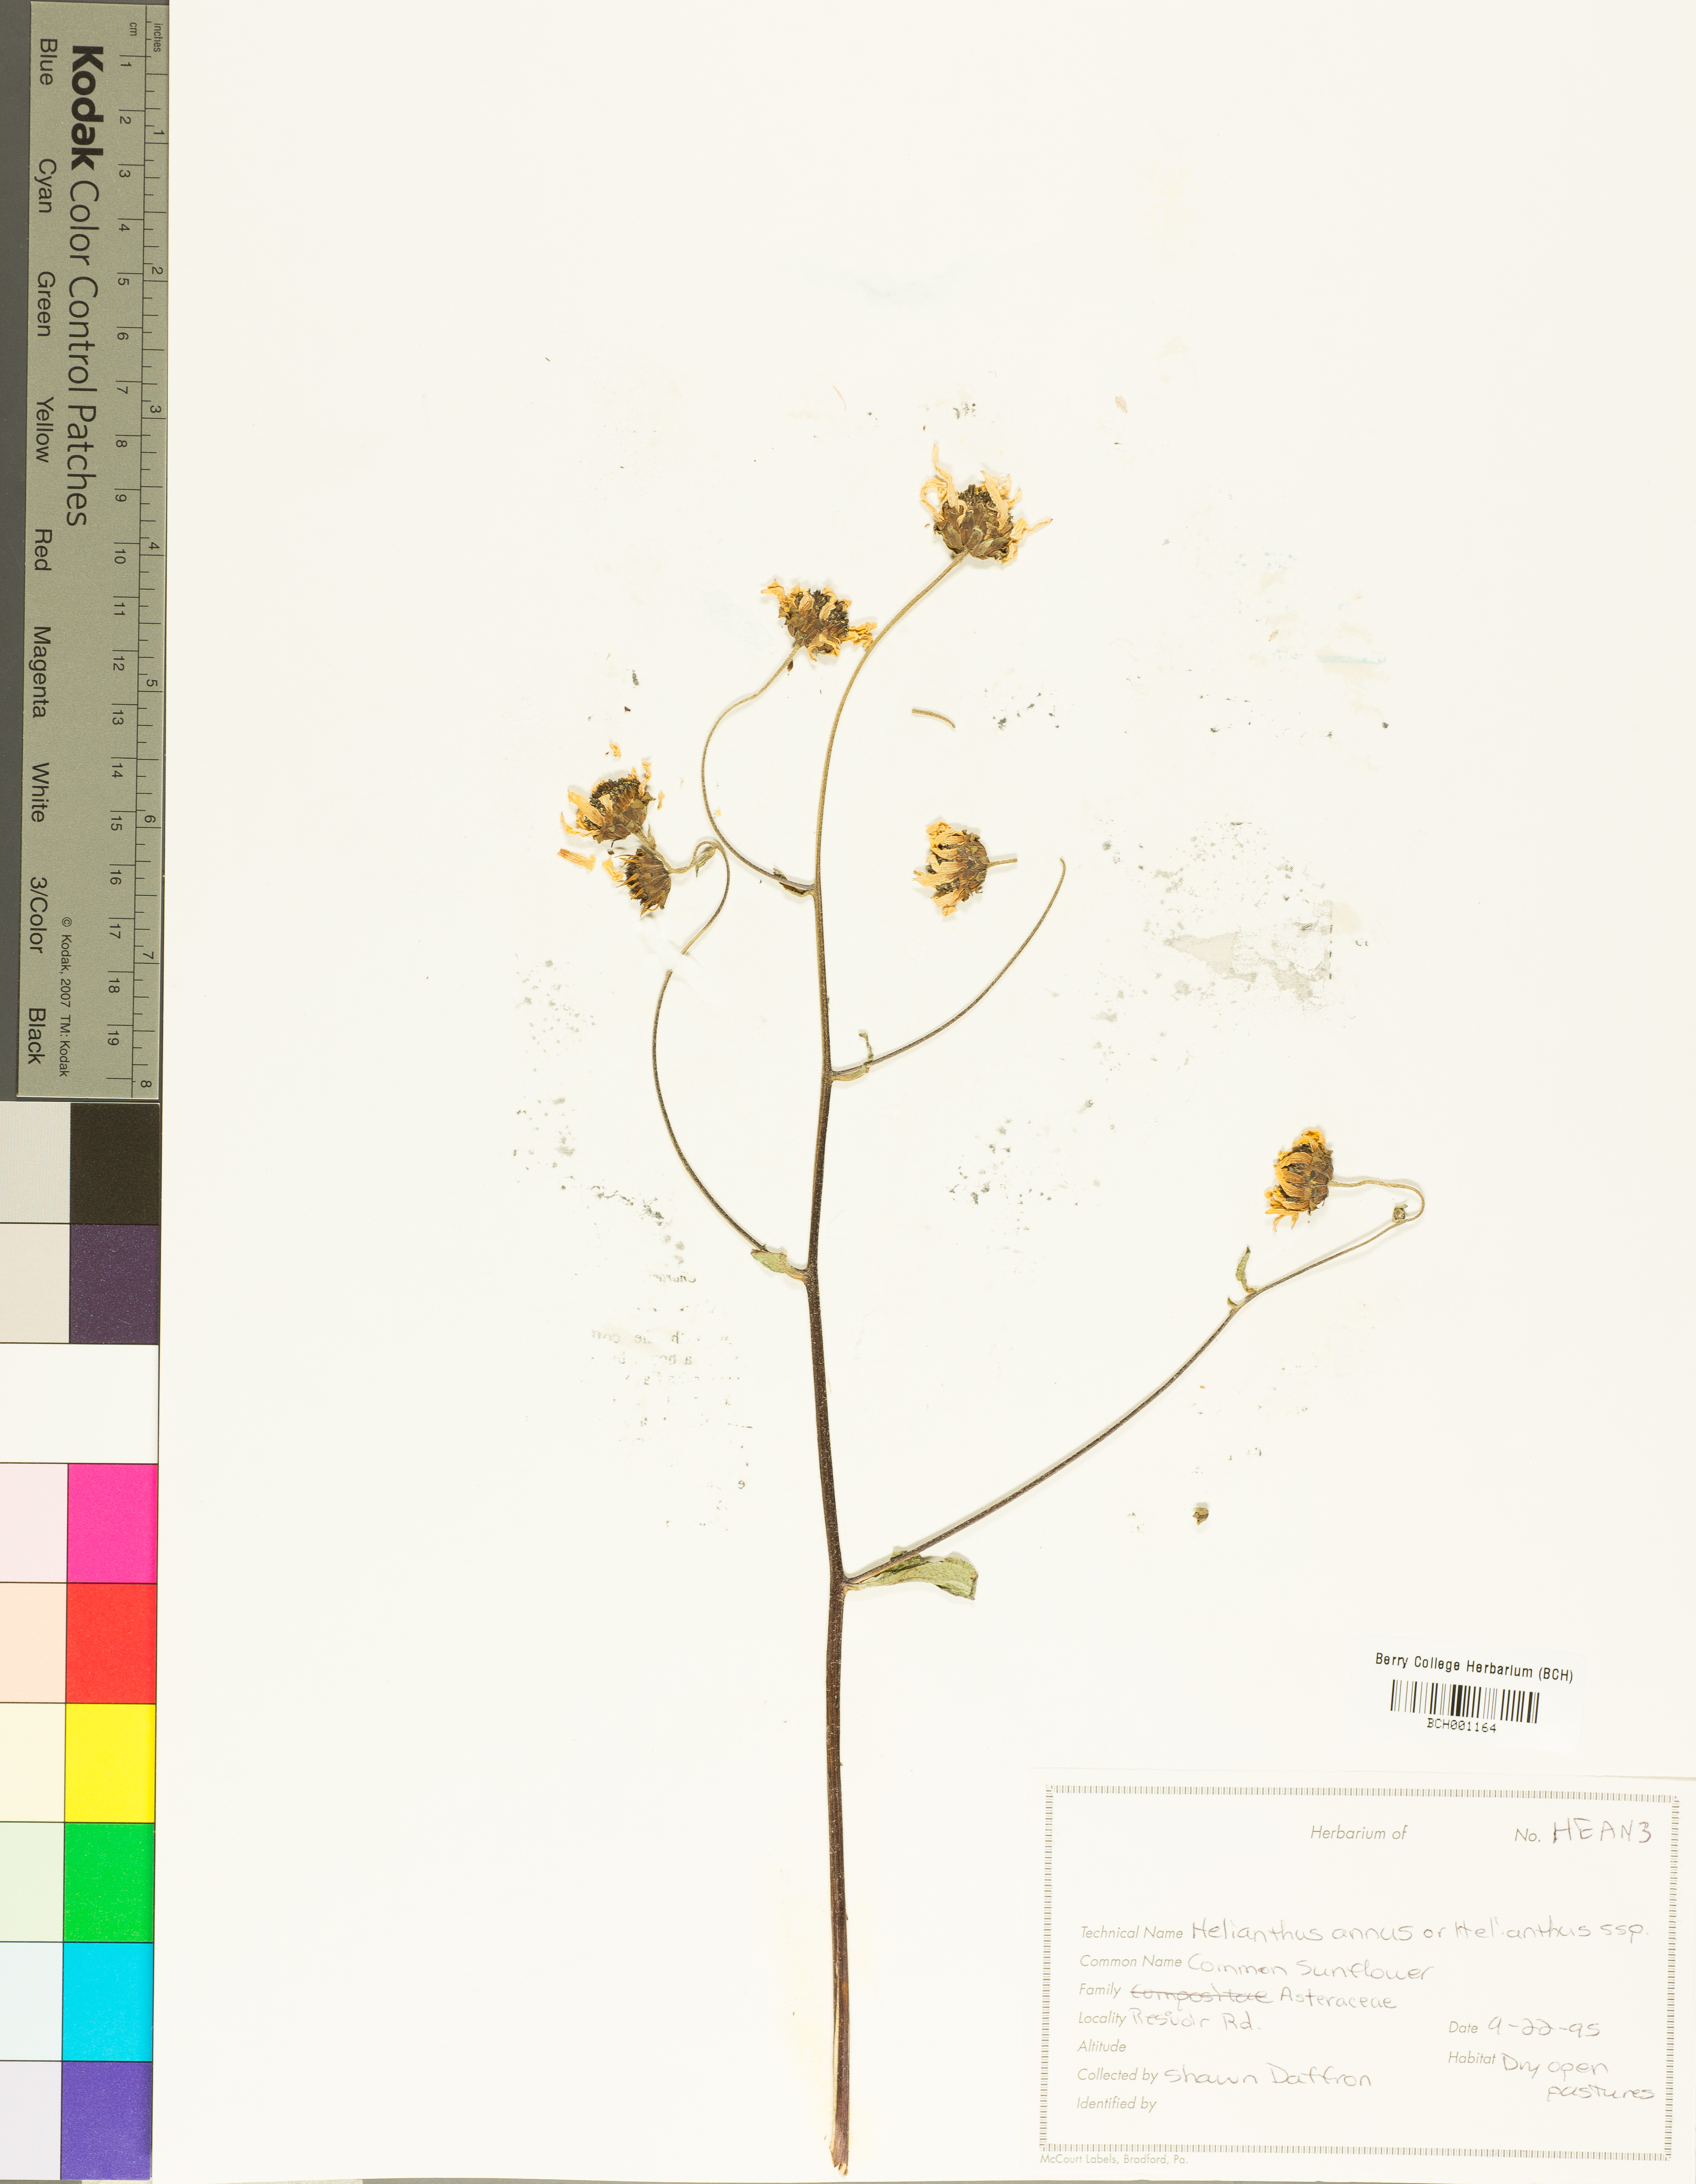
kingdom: Plantae
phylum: Tracheophyta
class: Magnoliopsida
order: Asterales
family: Asteraceae
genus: Helianthus
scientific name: Helianthus annuus
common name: Sunflower
